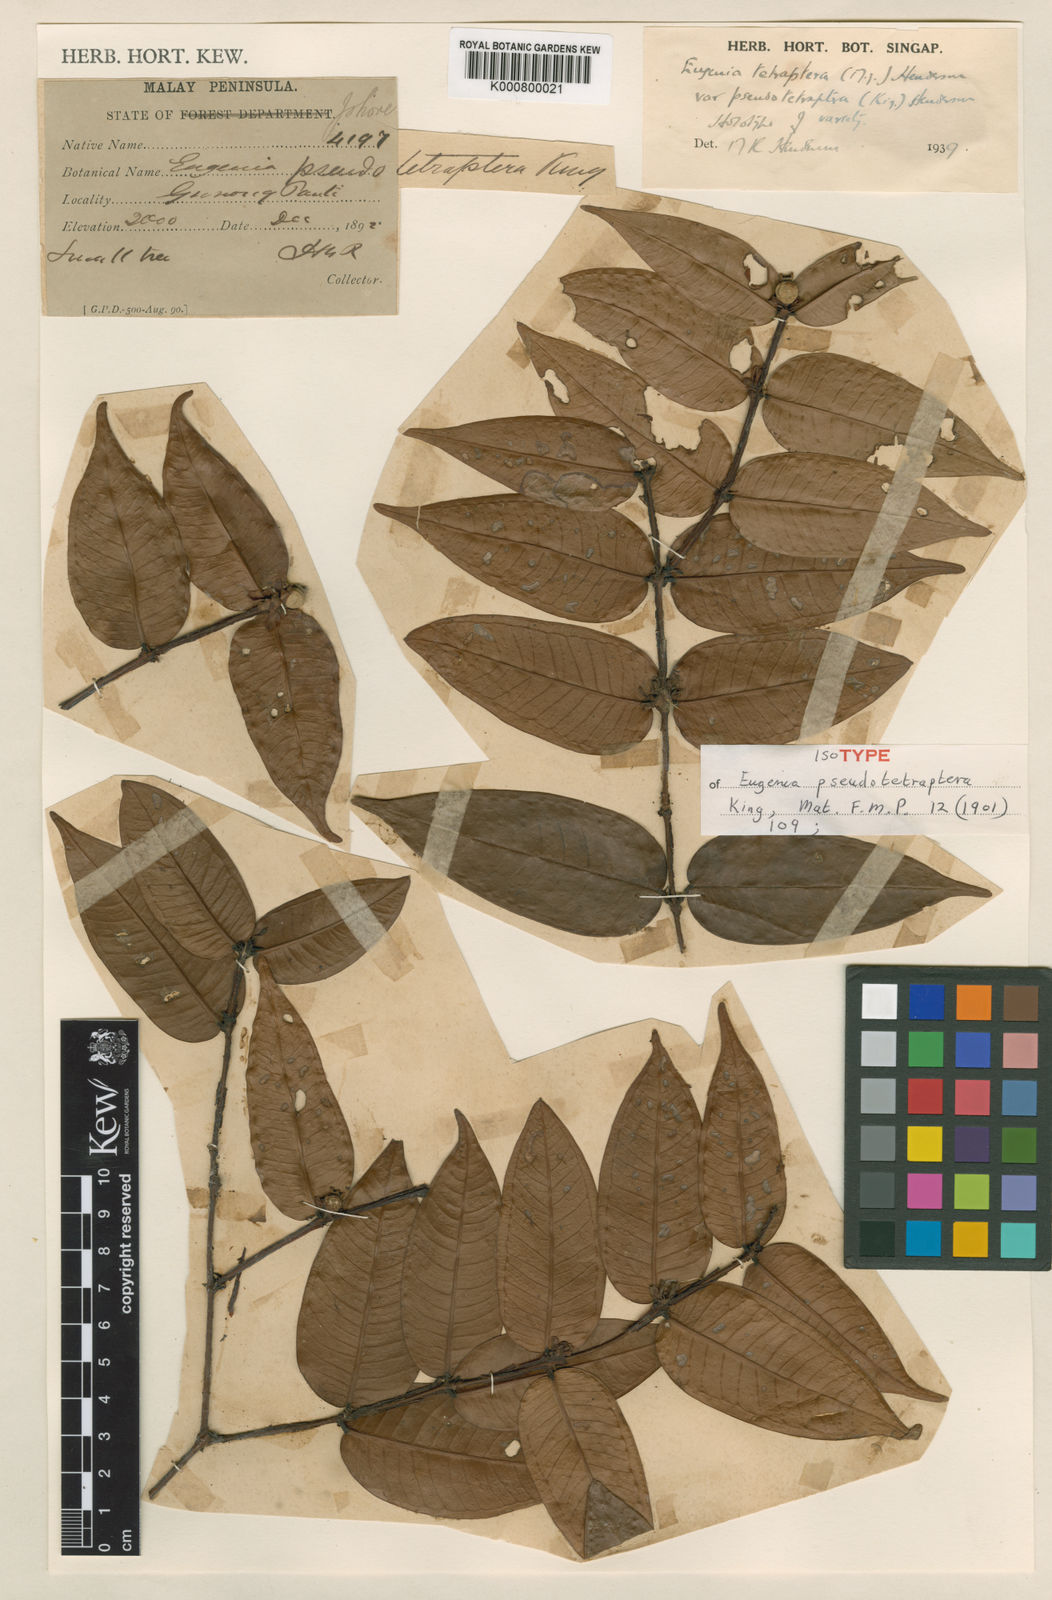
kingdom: Plantae
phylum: Tracheophyta
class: Magnoliopsida
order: Myrtales
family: Myrtaceae
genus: Syzygium
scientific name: Syzygium tetrapterum
